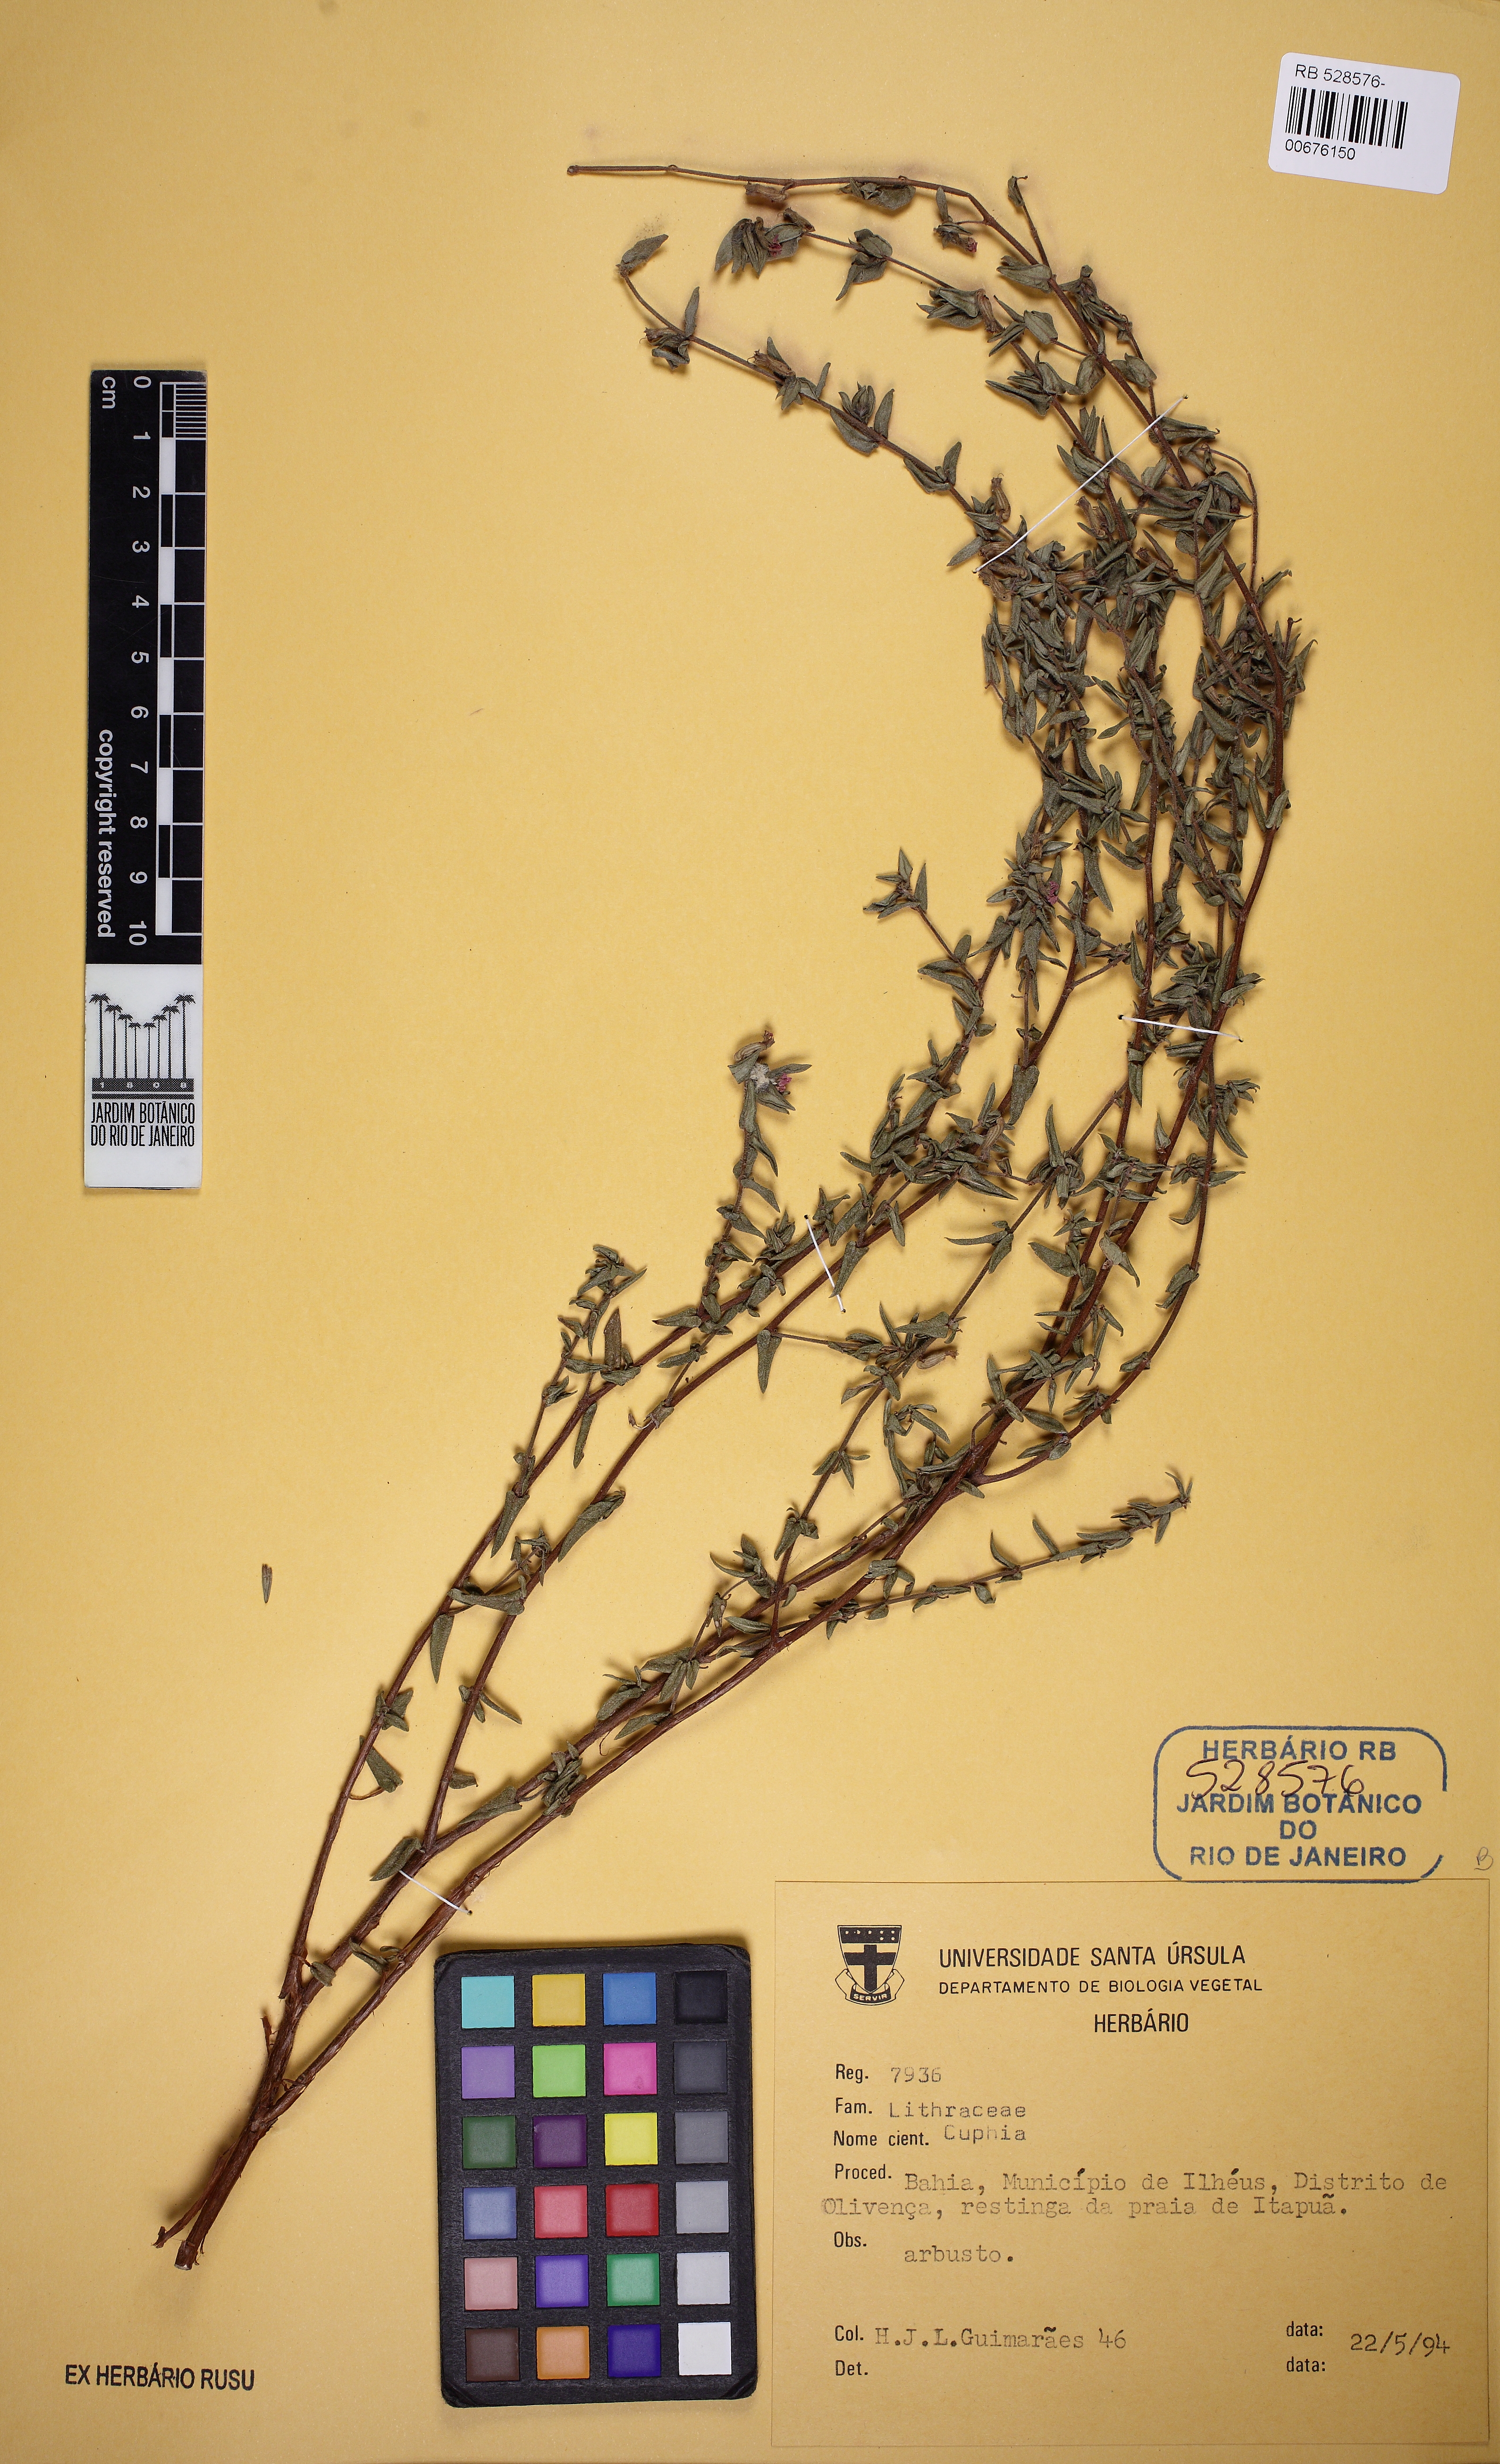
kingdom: Plantae
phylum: Tracheophyta
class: Magnoliopsida
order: Myrtales
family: Lythraceae
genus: Cuphea
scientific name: Cuphea sessilifolia
